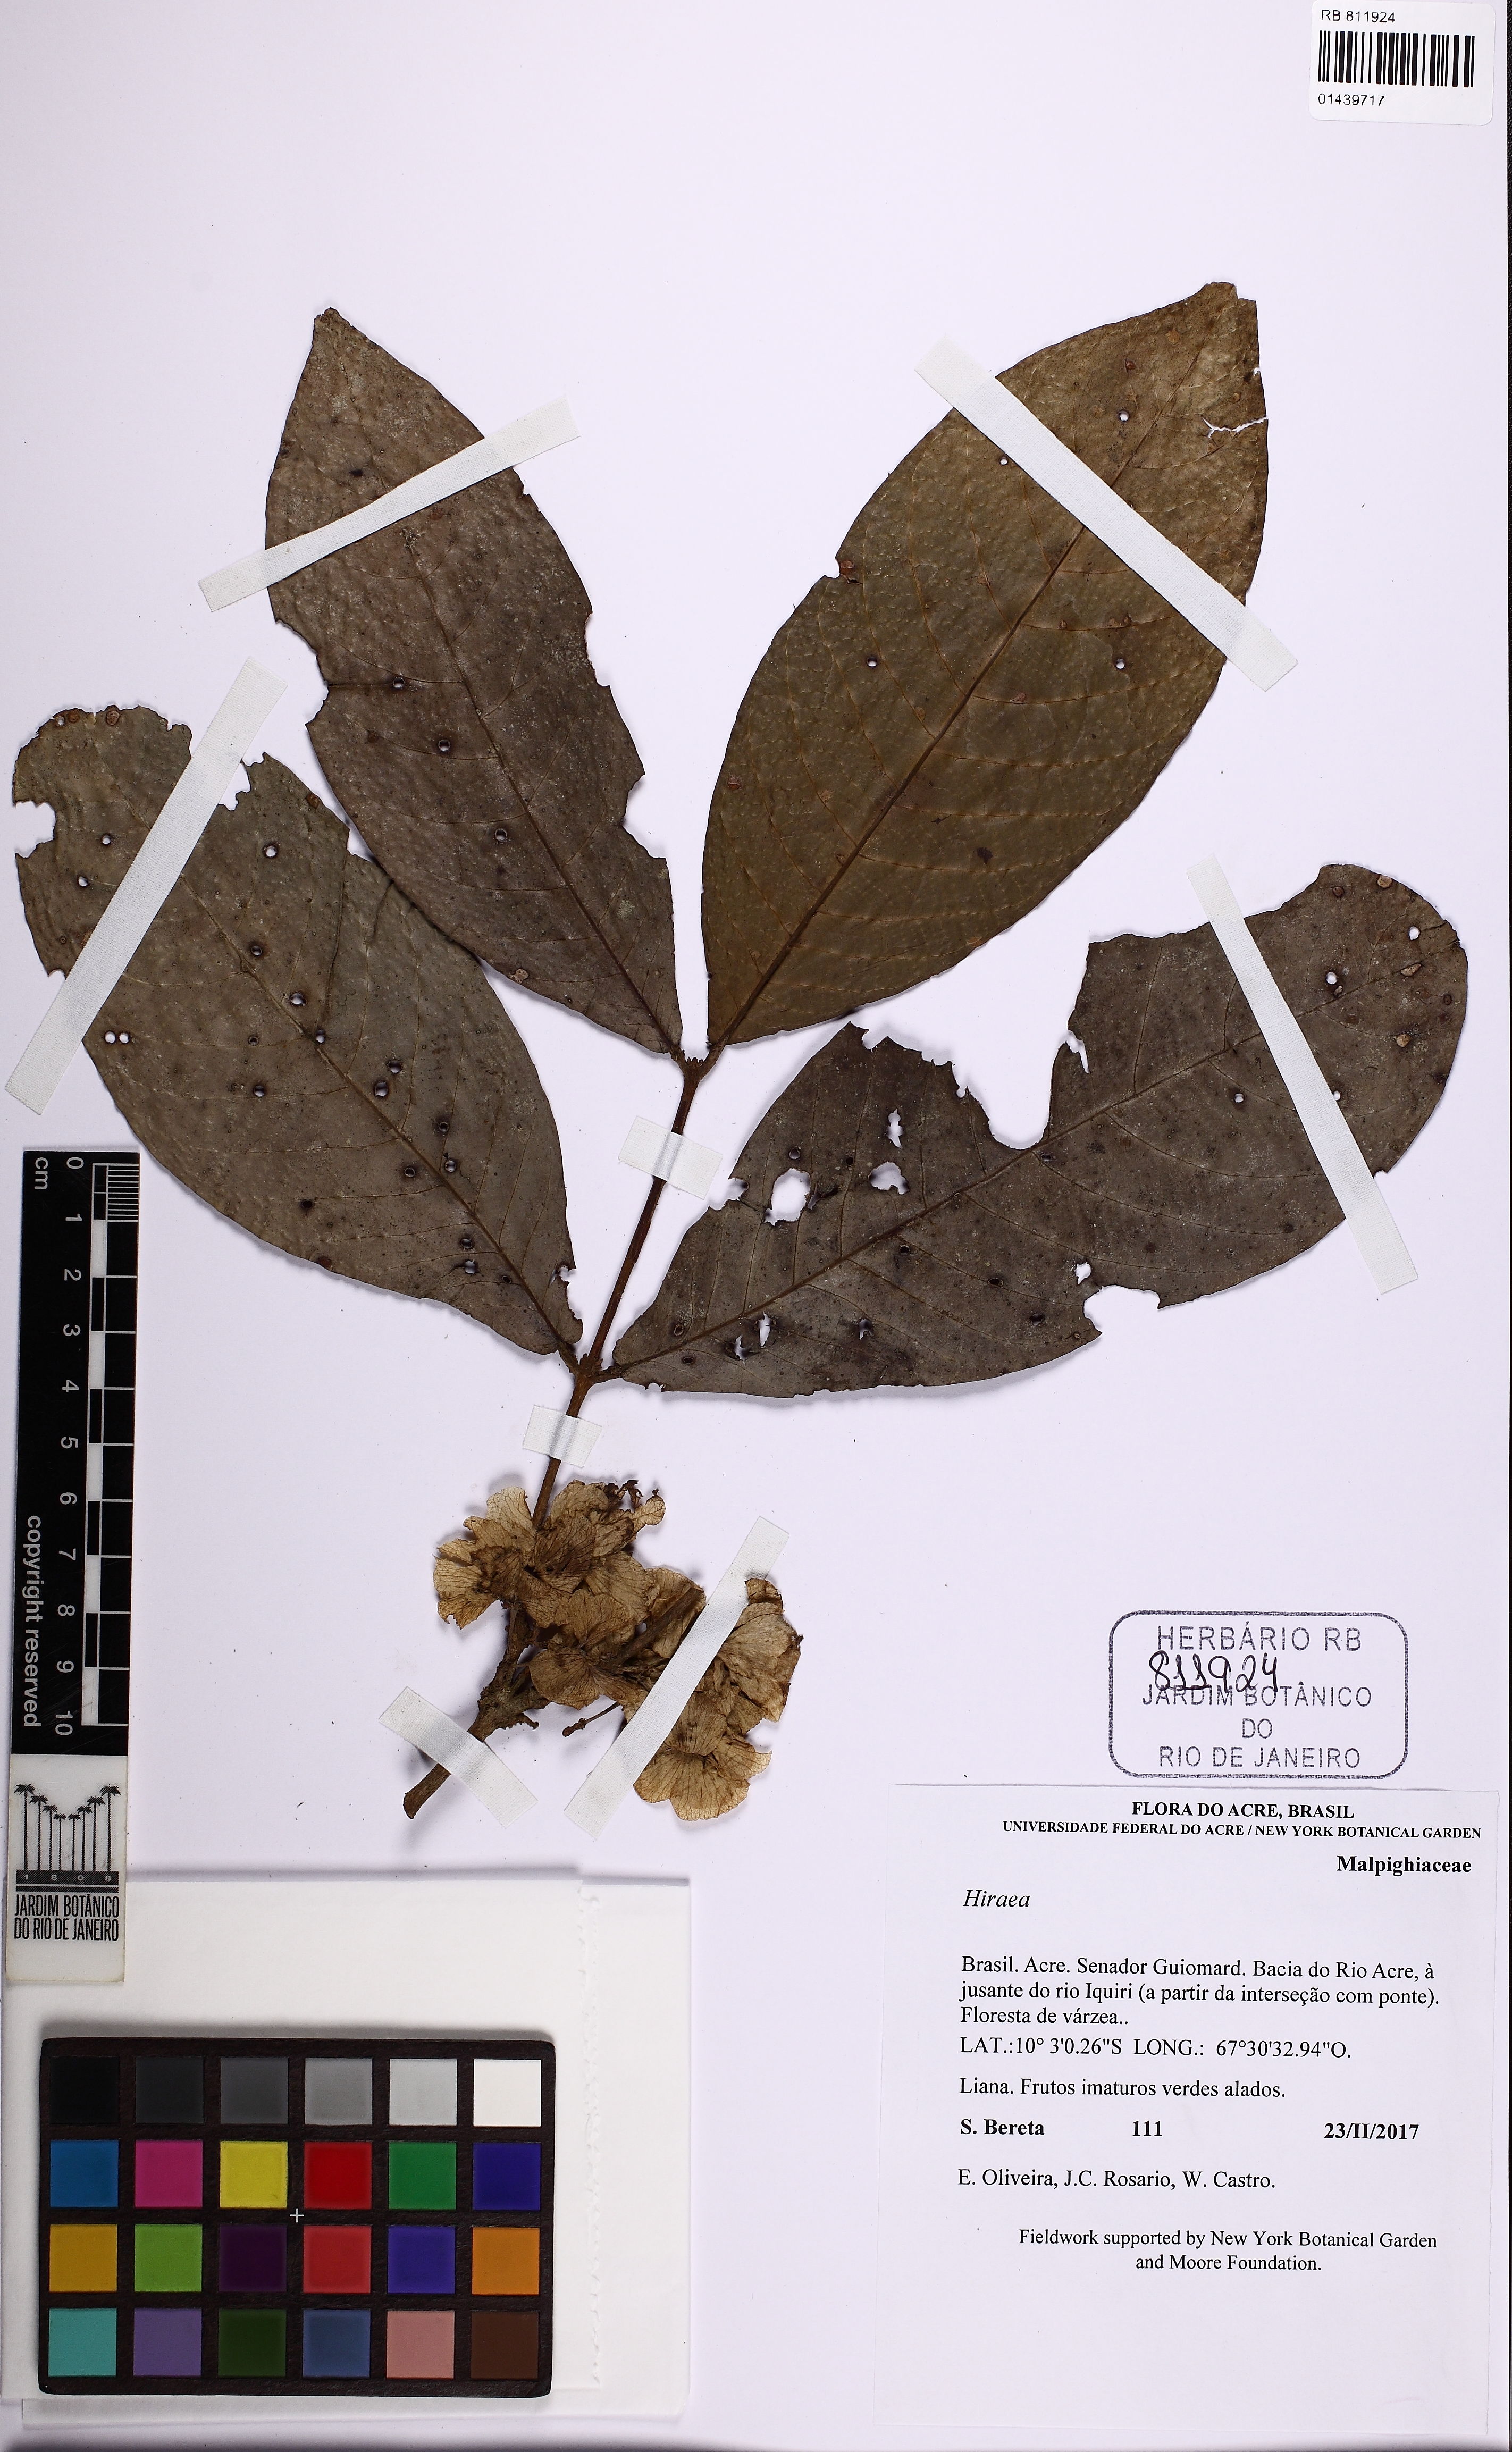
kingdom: Plantae
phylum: Tracheophyta
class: Magnoliopsida
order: Malpighiales
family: Malpighiaceae
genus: Hiraea
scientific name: Hiraea
